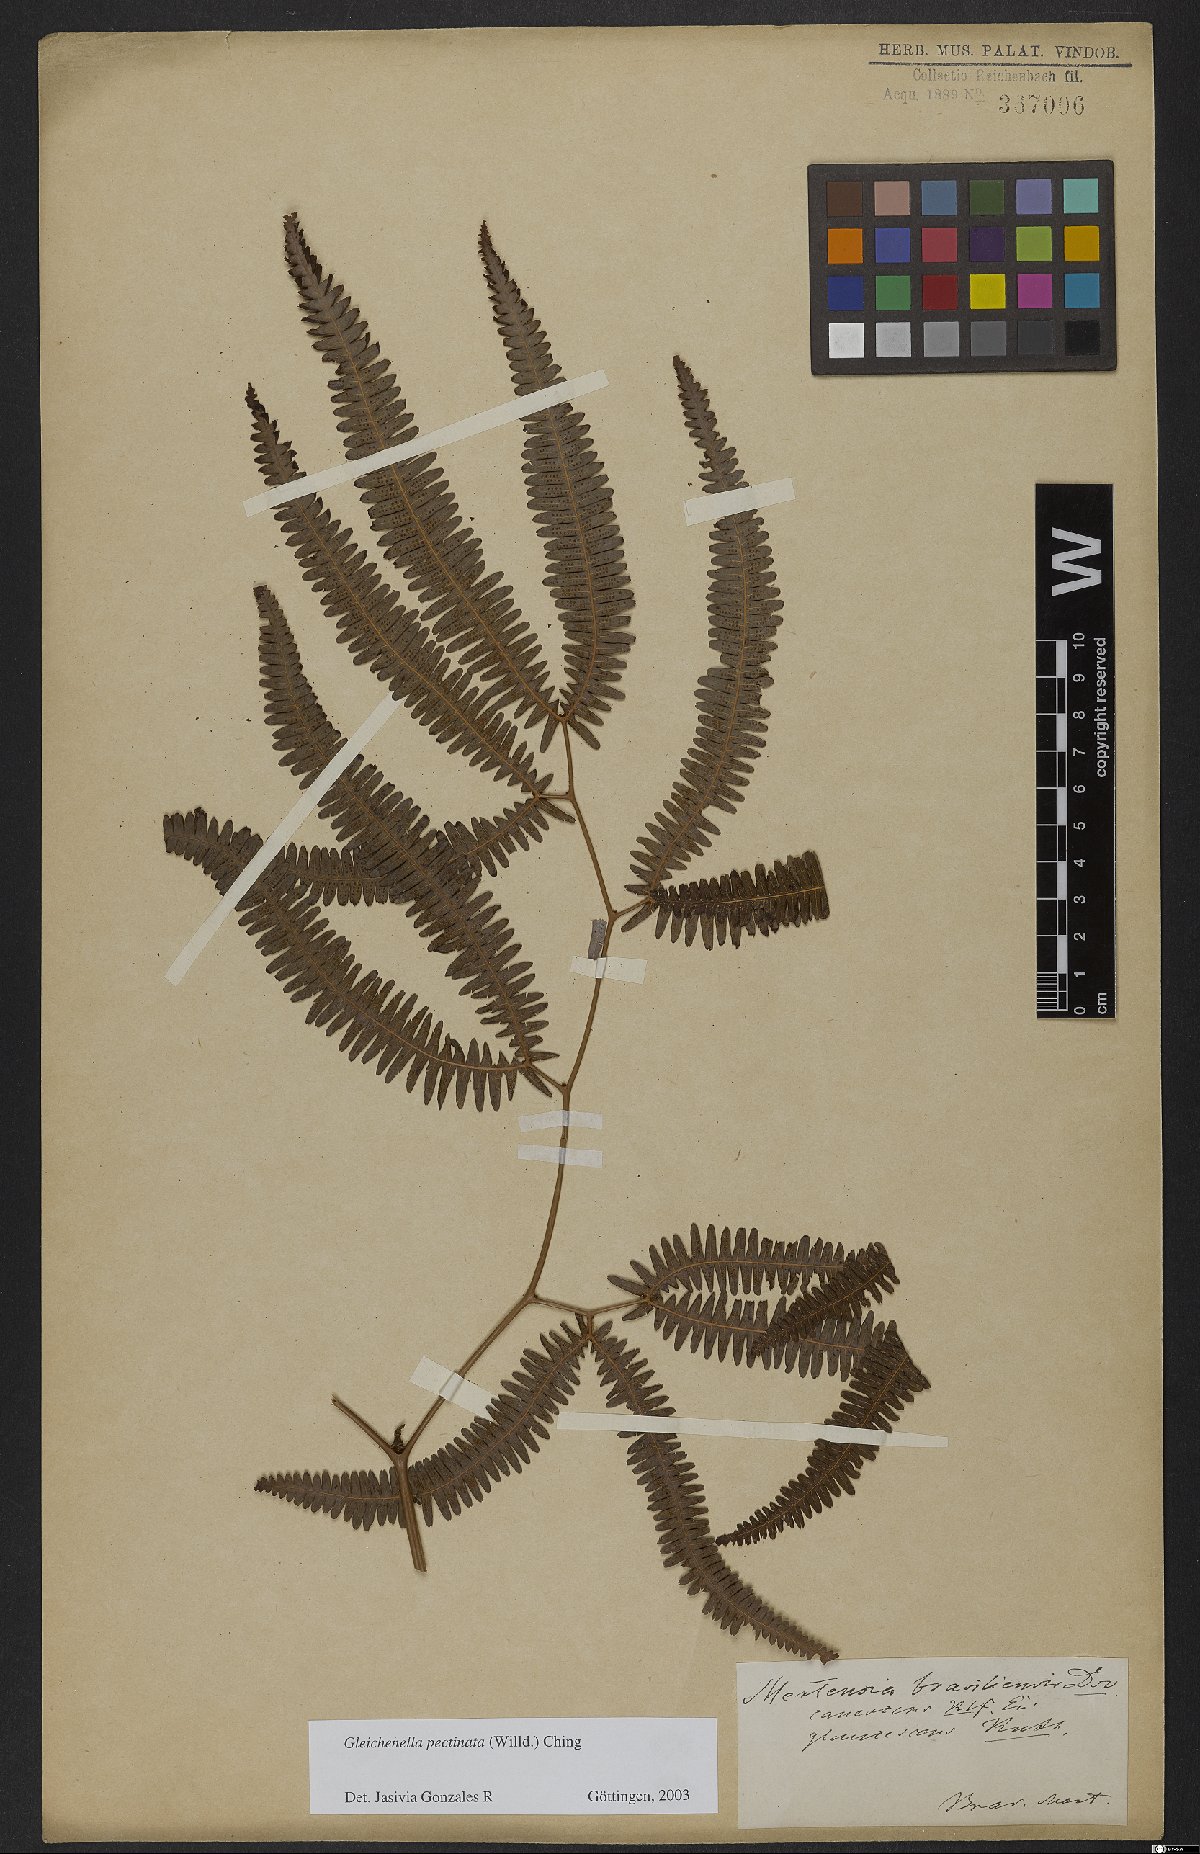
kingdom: Plantae
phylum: Tracheophyta
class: Polypodiopsida
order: Gleicheniales
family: Gleicheniaceae
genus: Gleichenella
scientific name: Gleichenella pectinata
